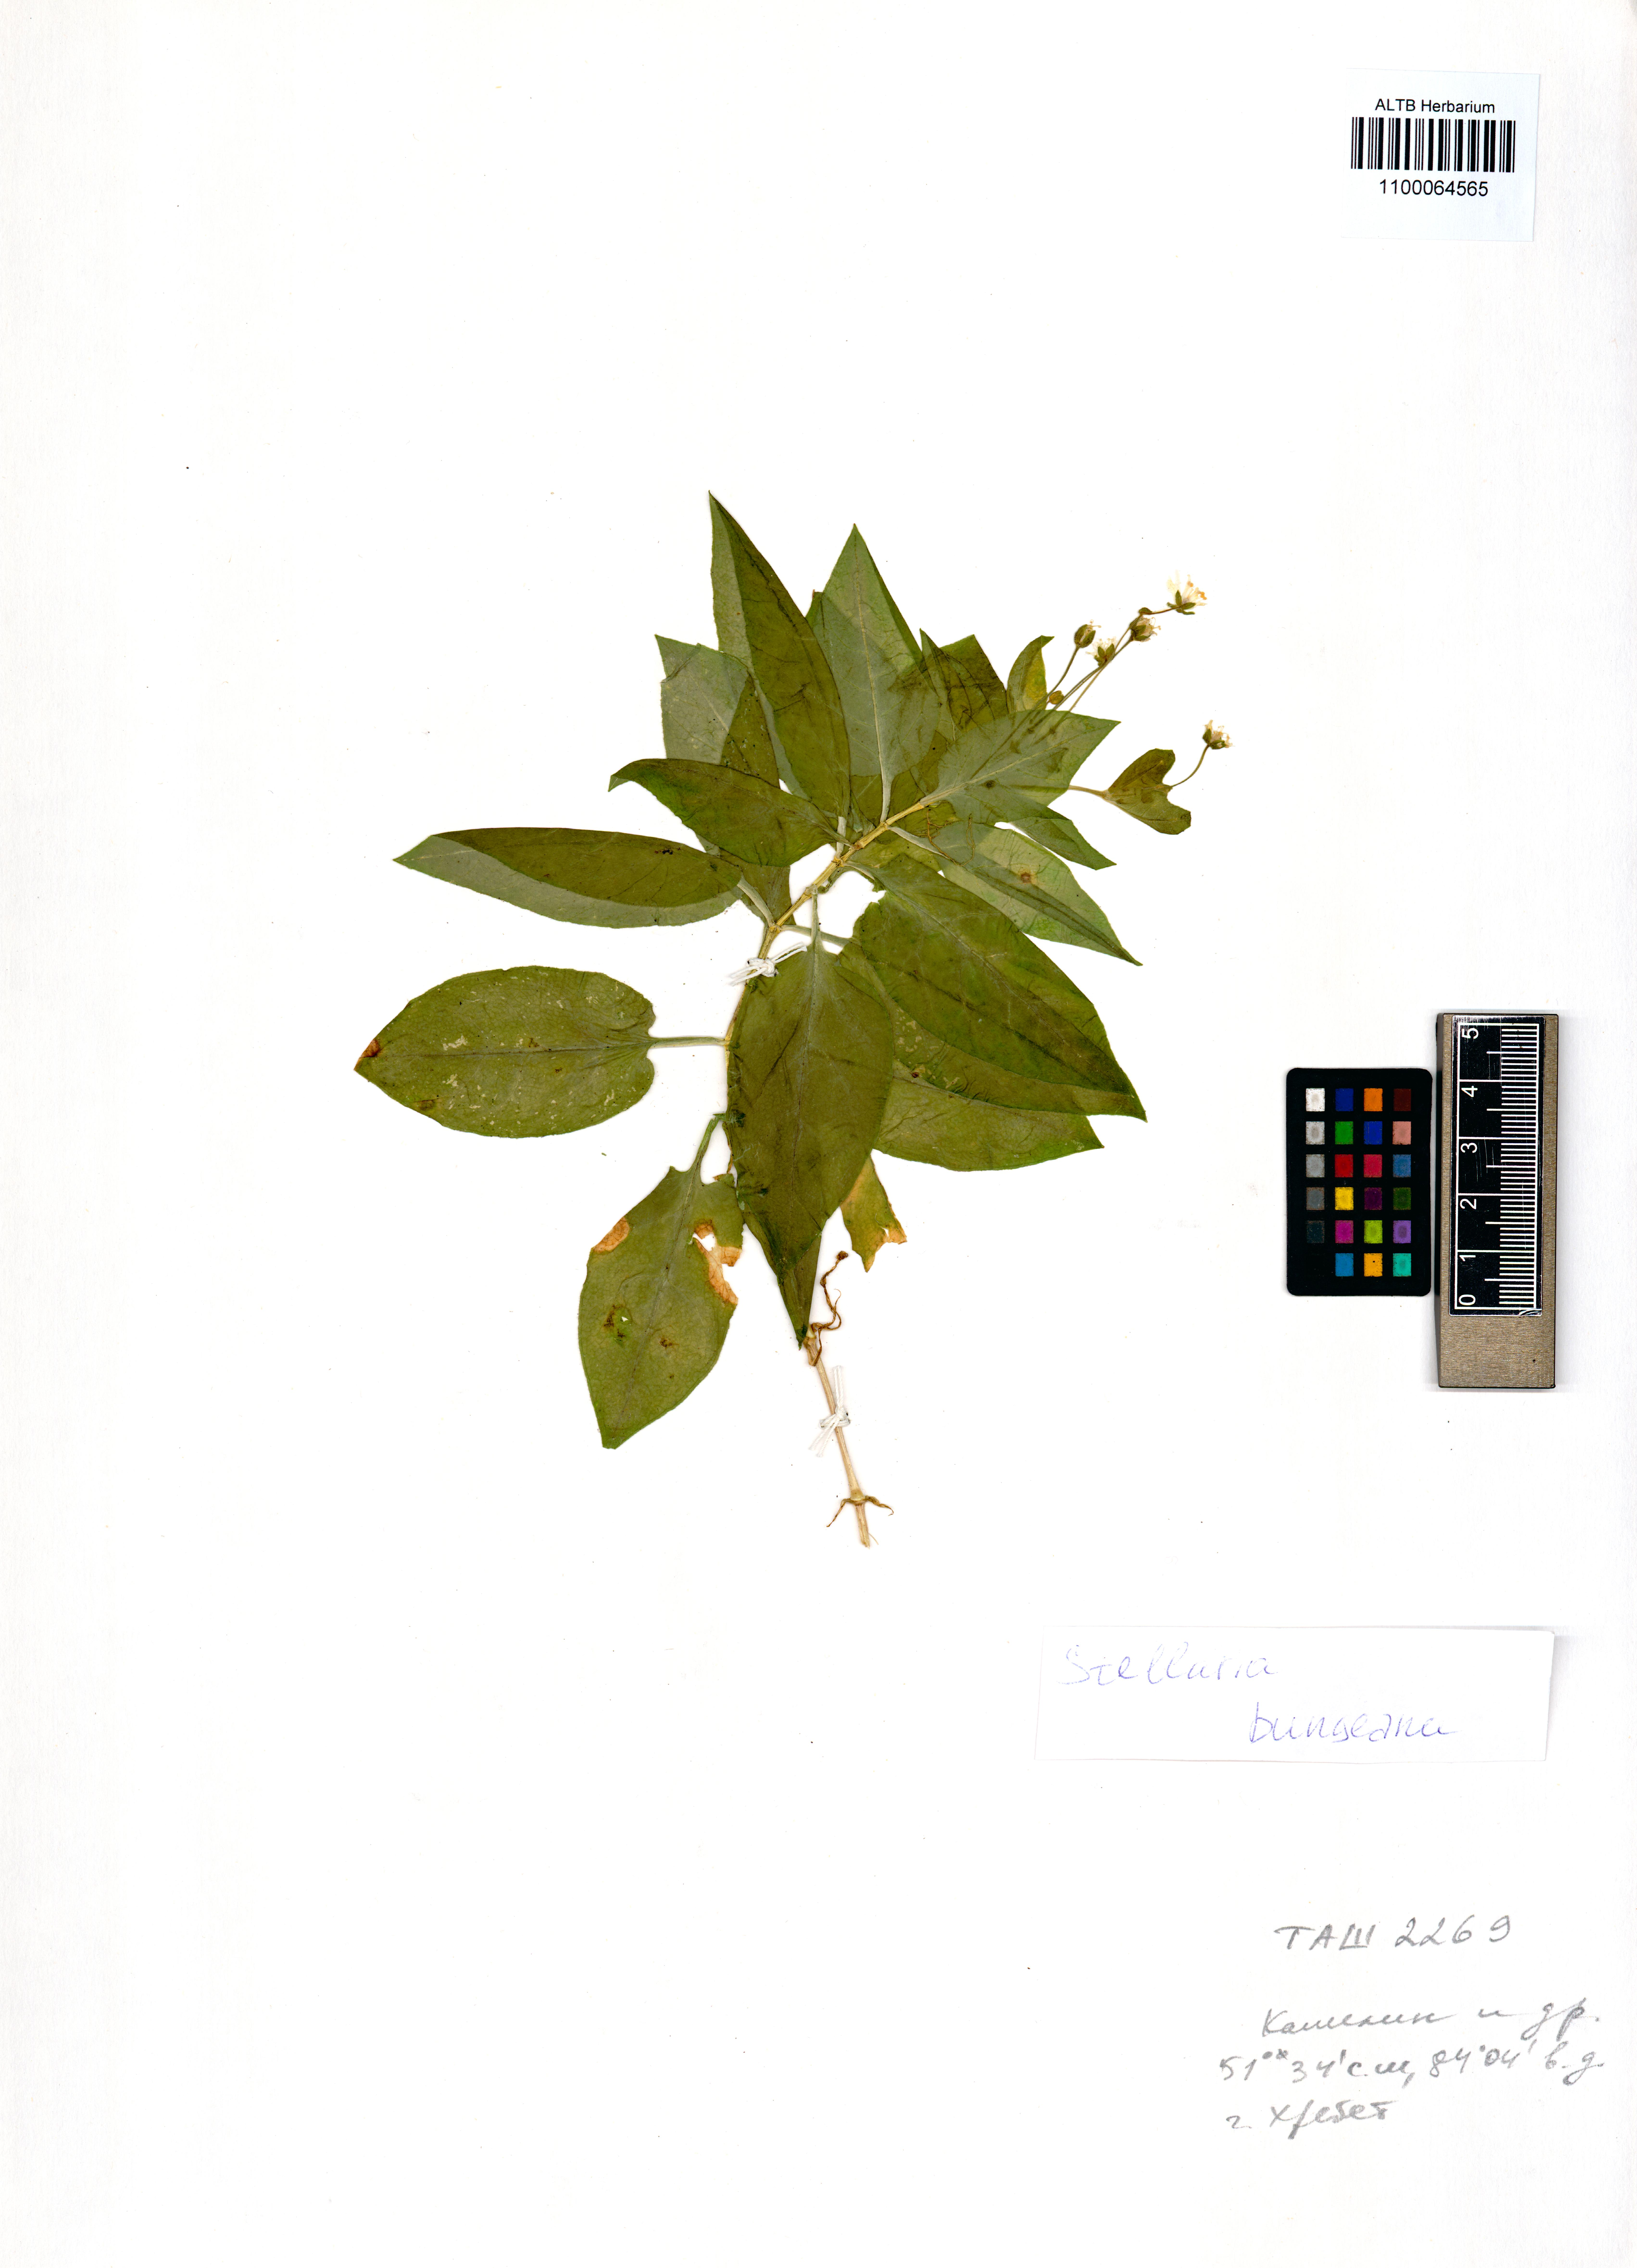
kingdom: Plantae
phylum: Tracheophyta
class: Magnoliopsida
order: Caryophyllales
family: Caryophyllaceae
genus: Stellaria
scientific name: Stellaria bungeana
